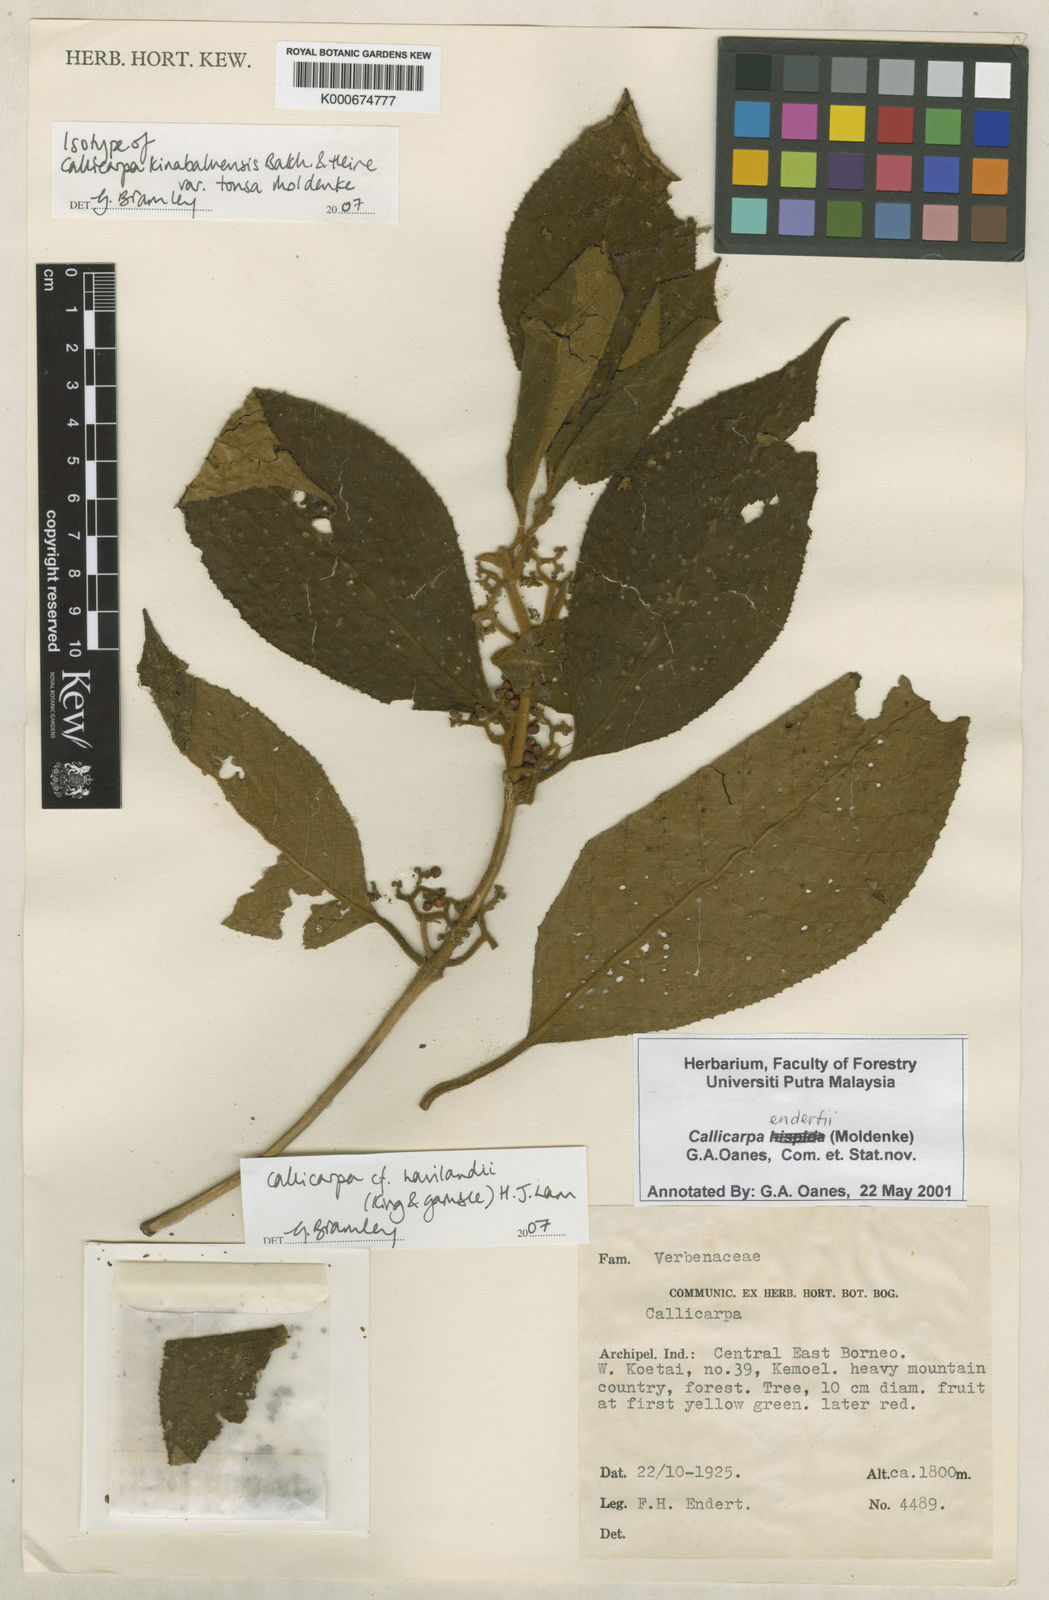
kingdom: Plantae
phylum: Tracheophyta
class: Magnoliopsida
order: Lamiales
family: Lamiaceae
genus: Callicarpa
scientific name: Callicarpa havilandii
